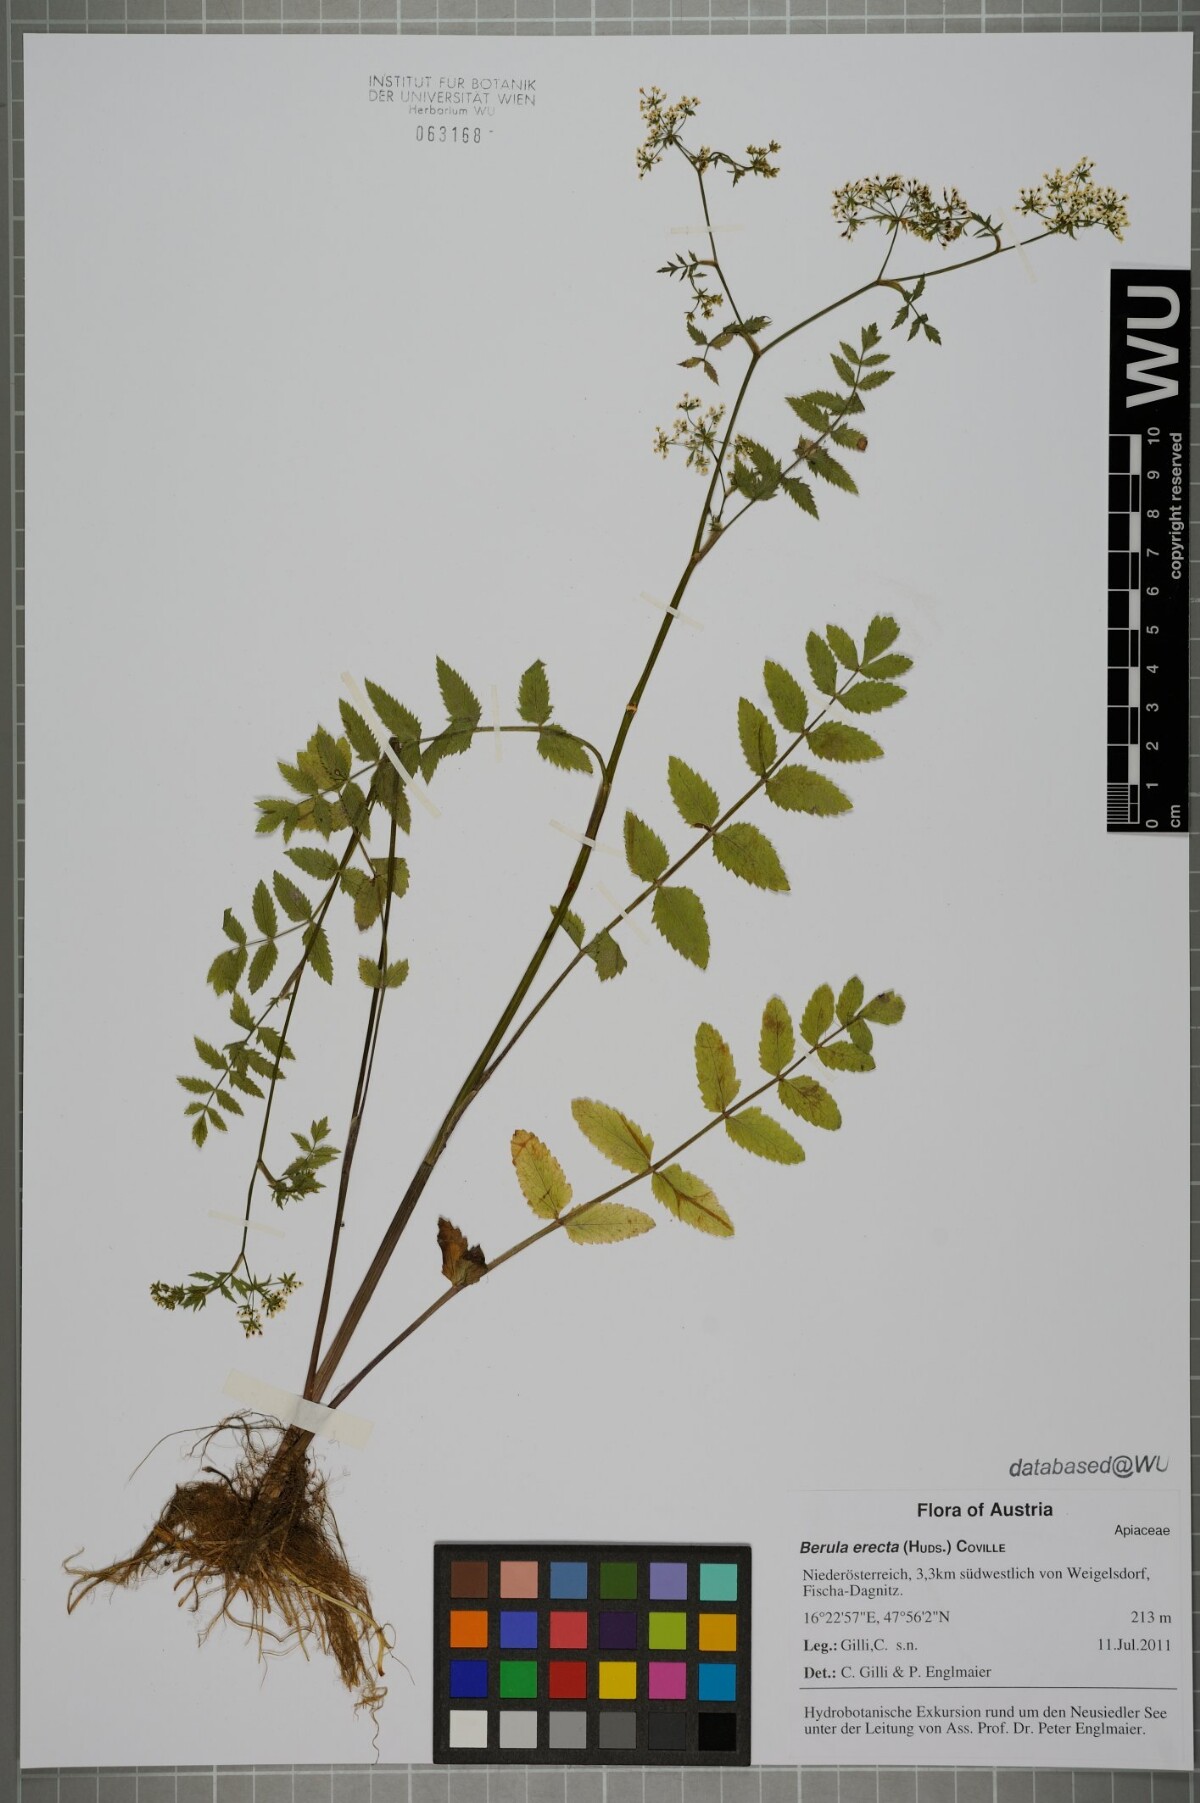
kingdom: Plantae
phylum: Tracheophyta
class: Magnoliopsida
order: Apiales
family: Apiaceae
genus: Berula
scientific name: Berula erecta
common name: Lesser water-parsnip
